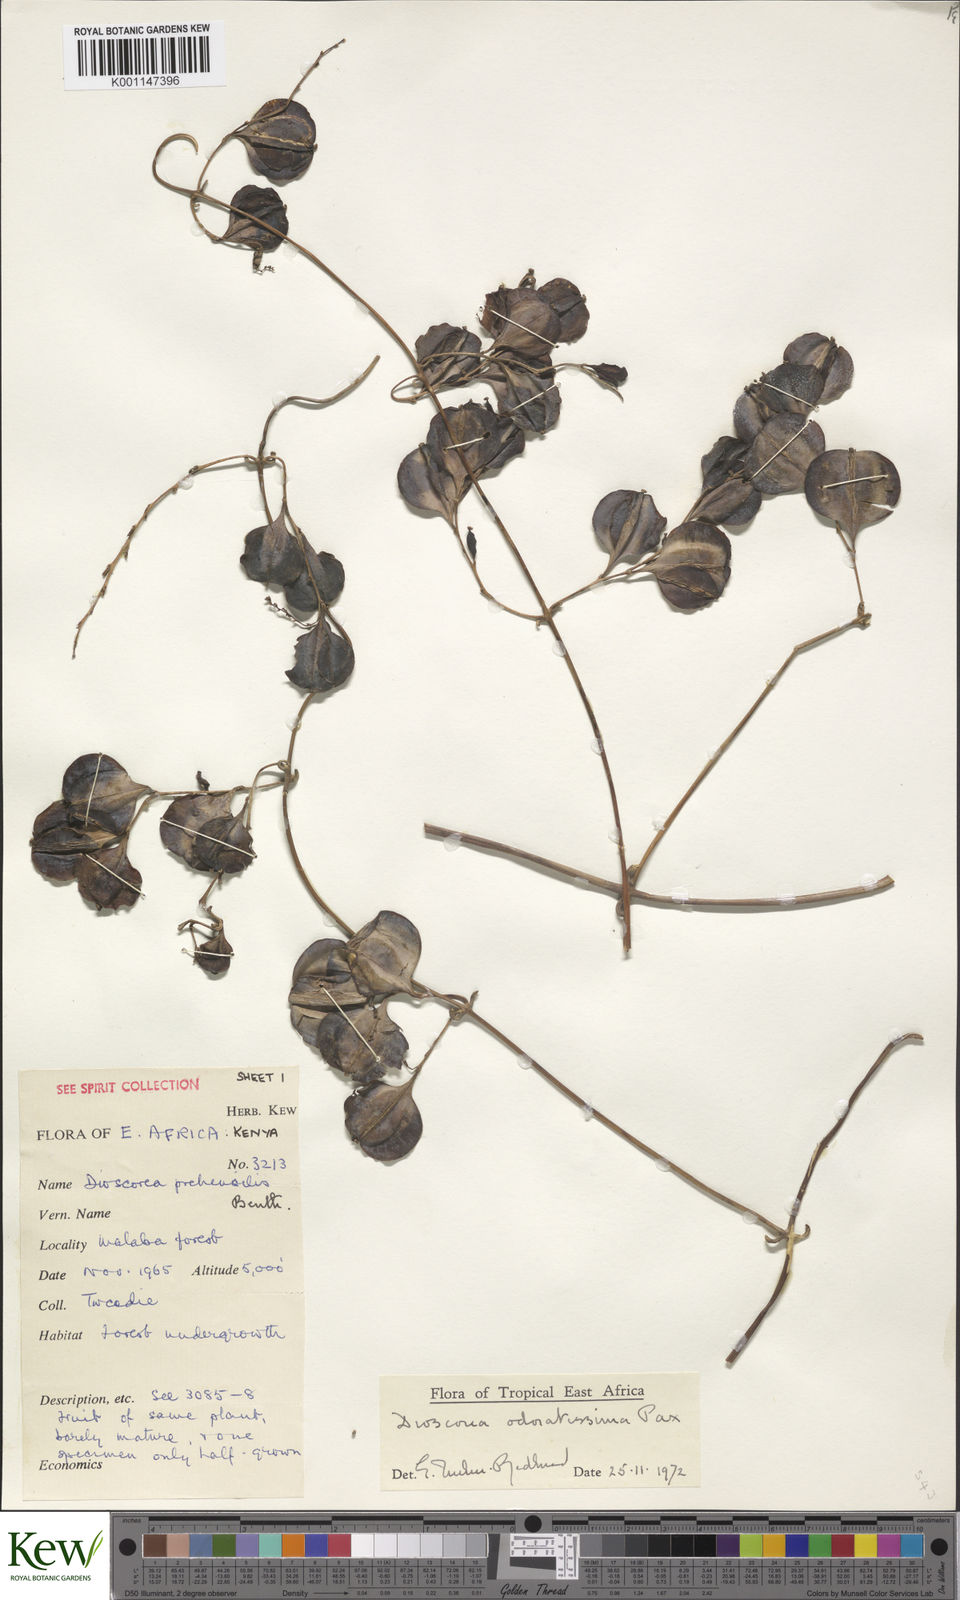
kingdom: Plantae
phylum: Tracheophyta
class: Liliopsida
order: Dioscoreales
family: Dioscoreaceae
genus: Dioscorea
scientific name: Dioscorea praehensilis
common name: Bush yam
